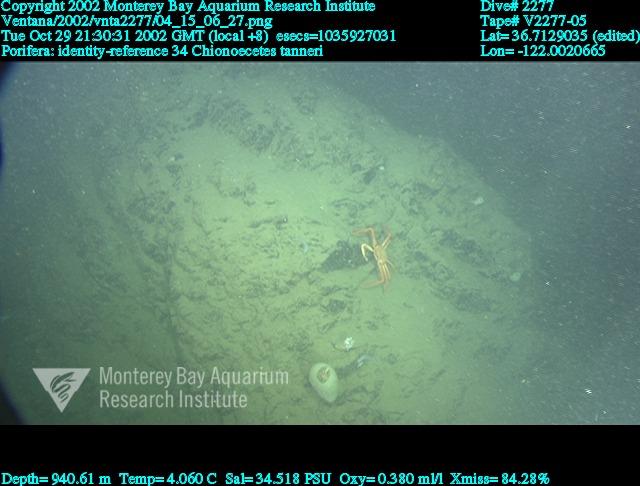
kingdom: Animalia
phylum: Porifera
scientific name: Porifera
